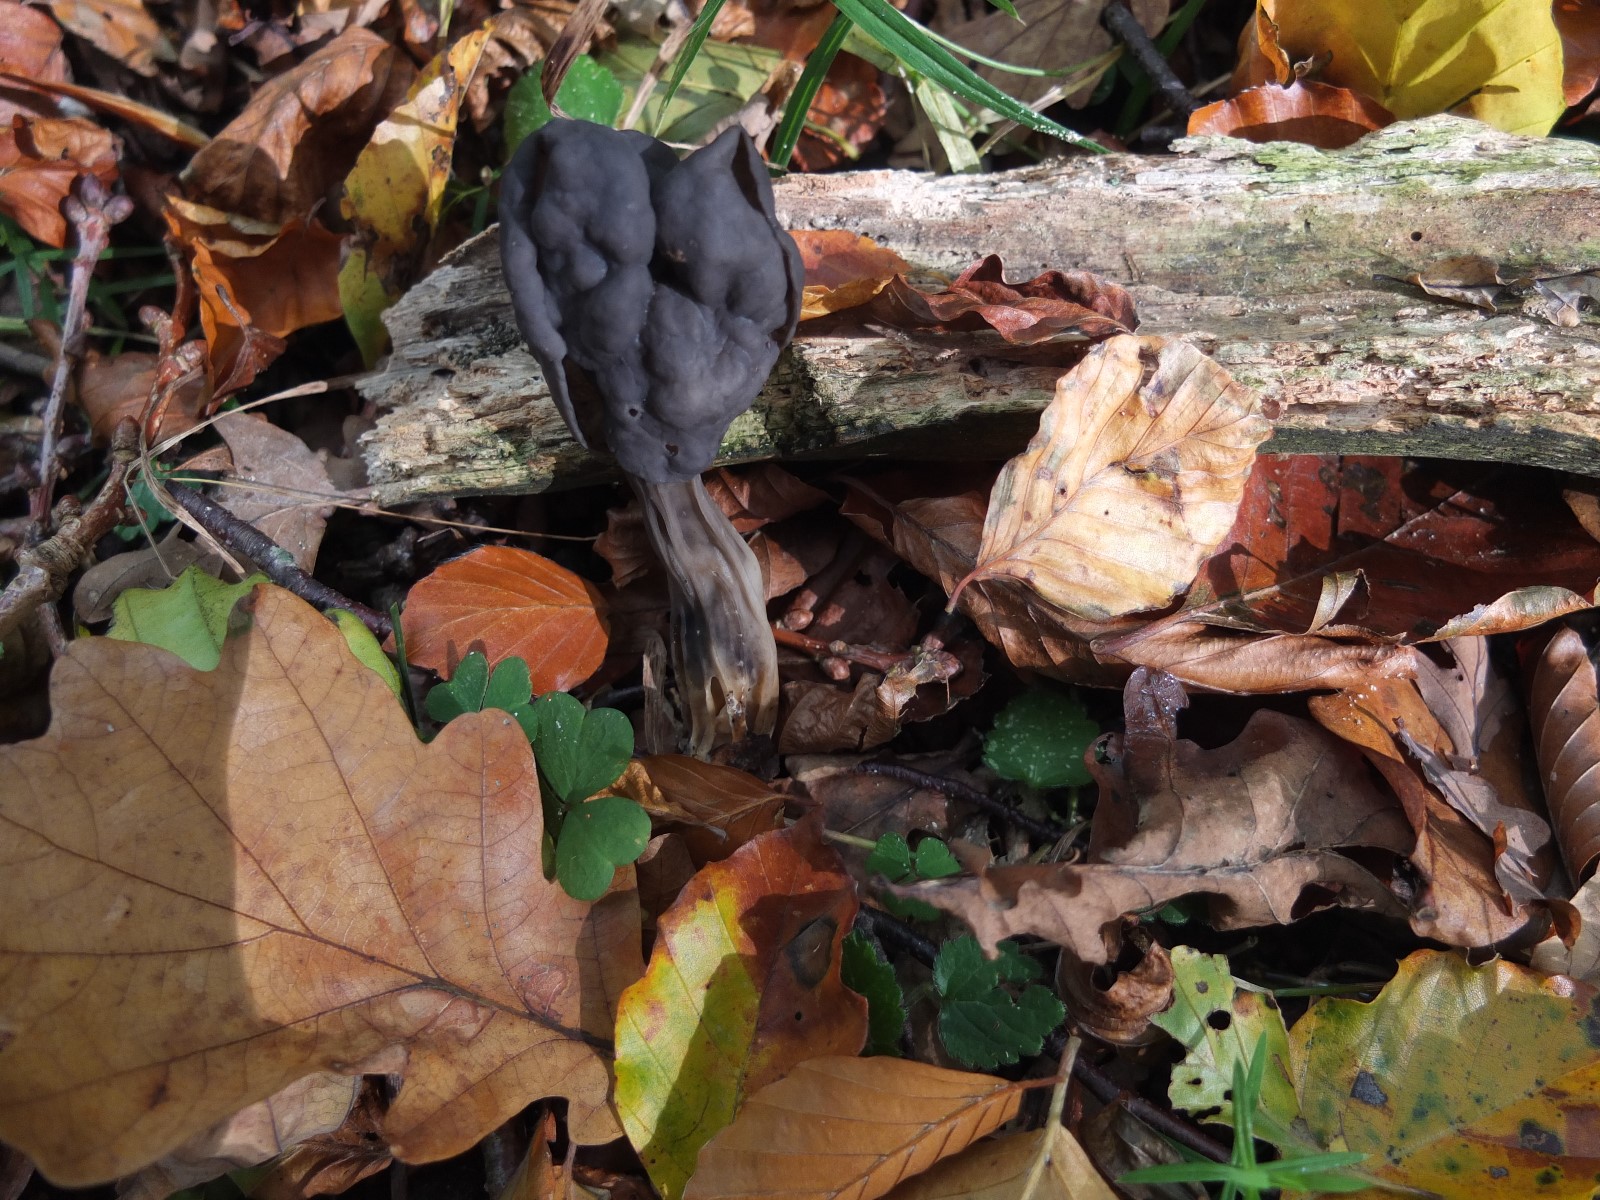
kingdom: Fungi
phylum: Ascomycota
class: Pezizomycetes
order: Pezizales
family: Helvellaceae
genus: Helvella
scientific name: Helvella lacunosa
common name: grubet foldhat
